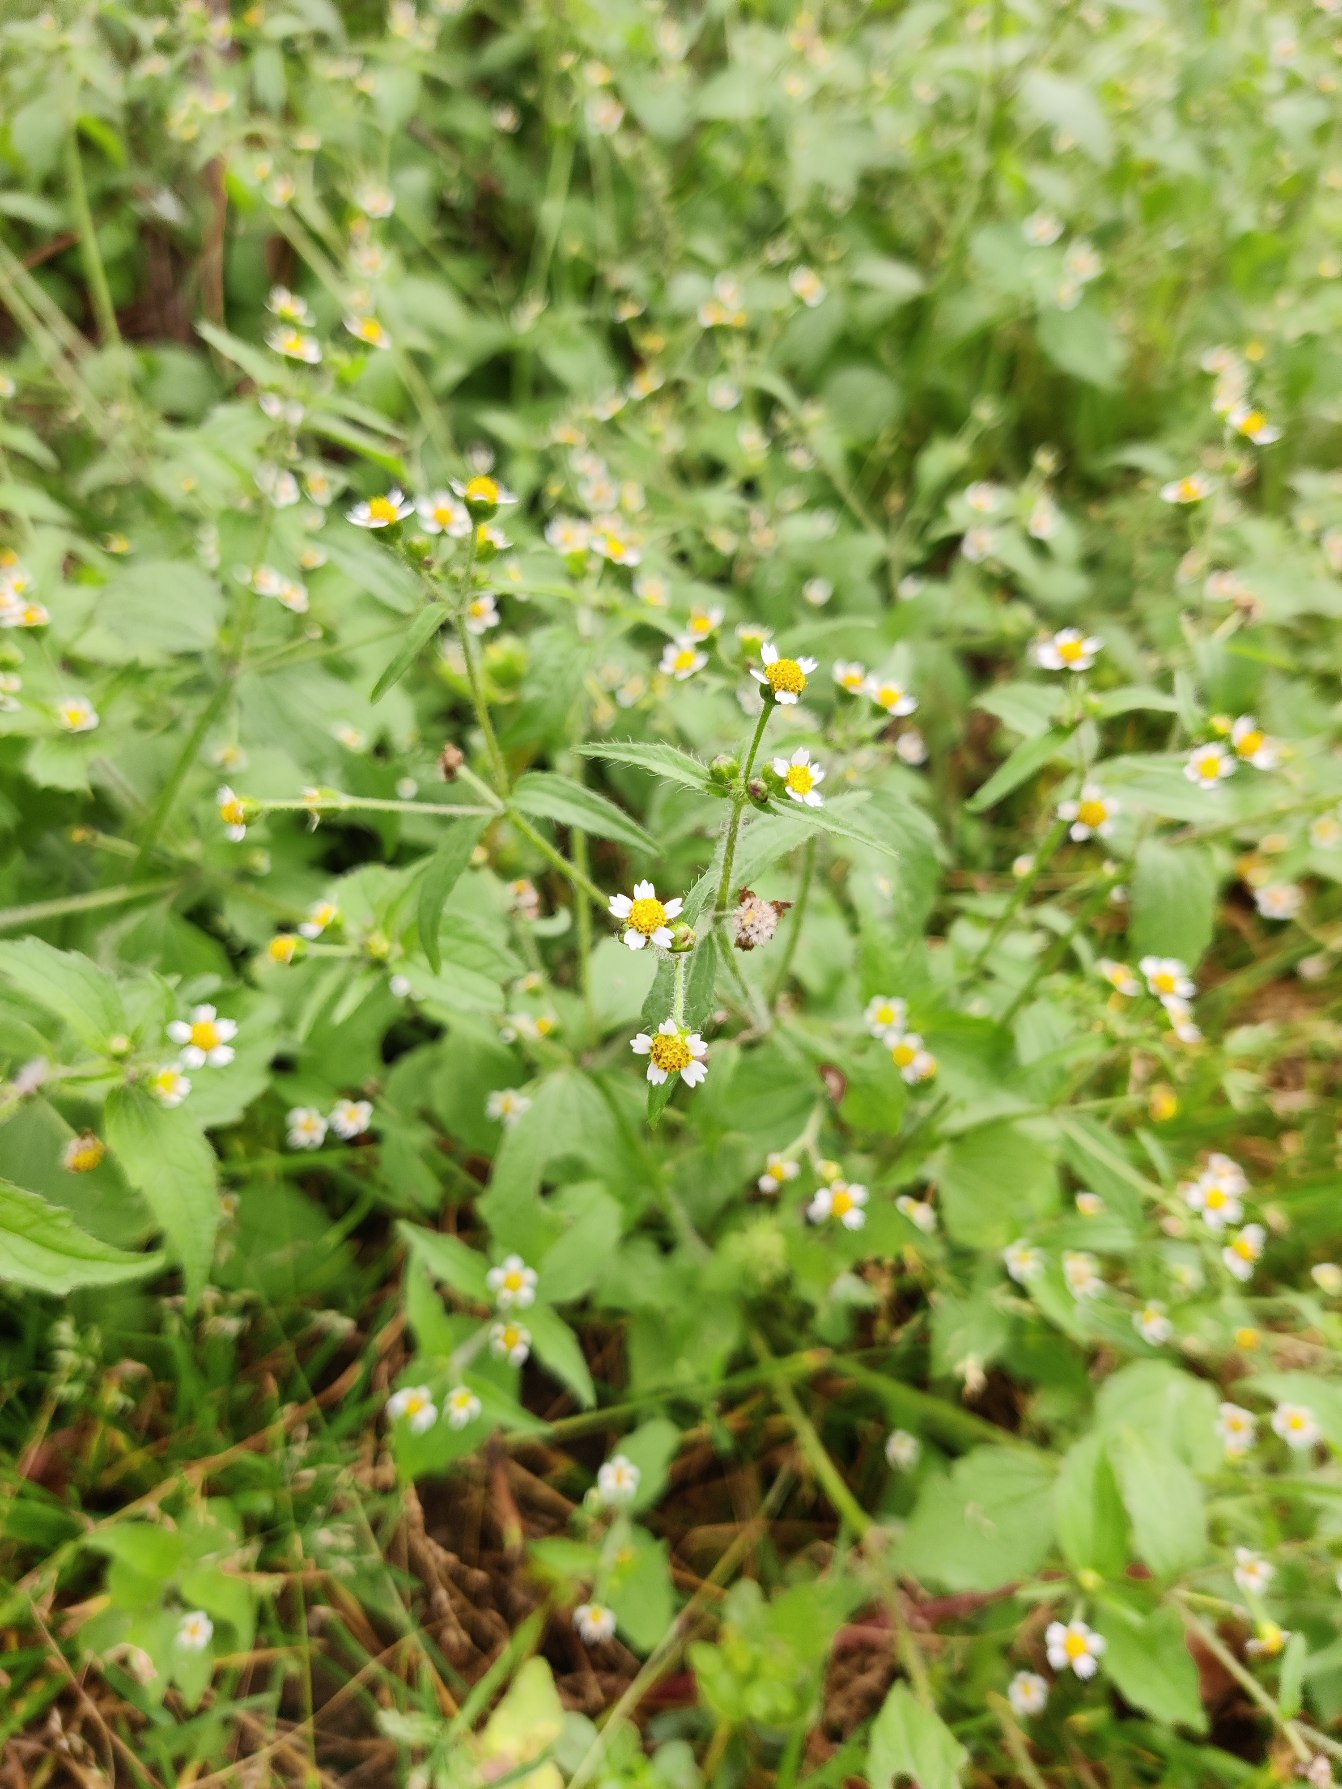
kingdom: Plantae
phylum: Tracheophyta
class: Magnoliopsida
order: Asterales
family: Asteraceae
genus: Galinsoga
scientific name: Galinsoga quadriradiata
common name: Kirtel-kortstråle
